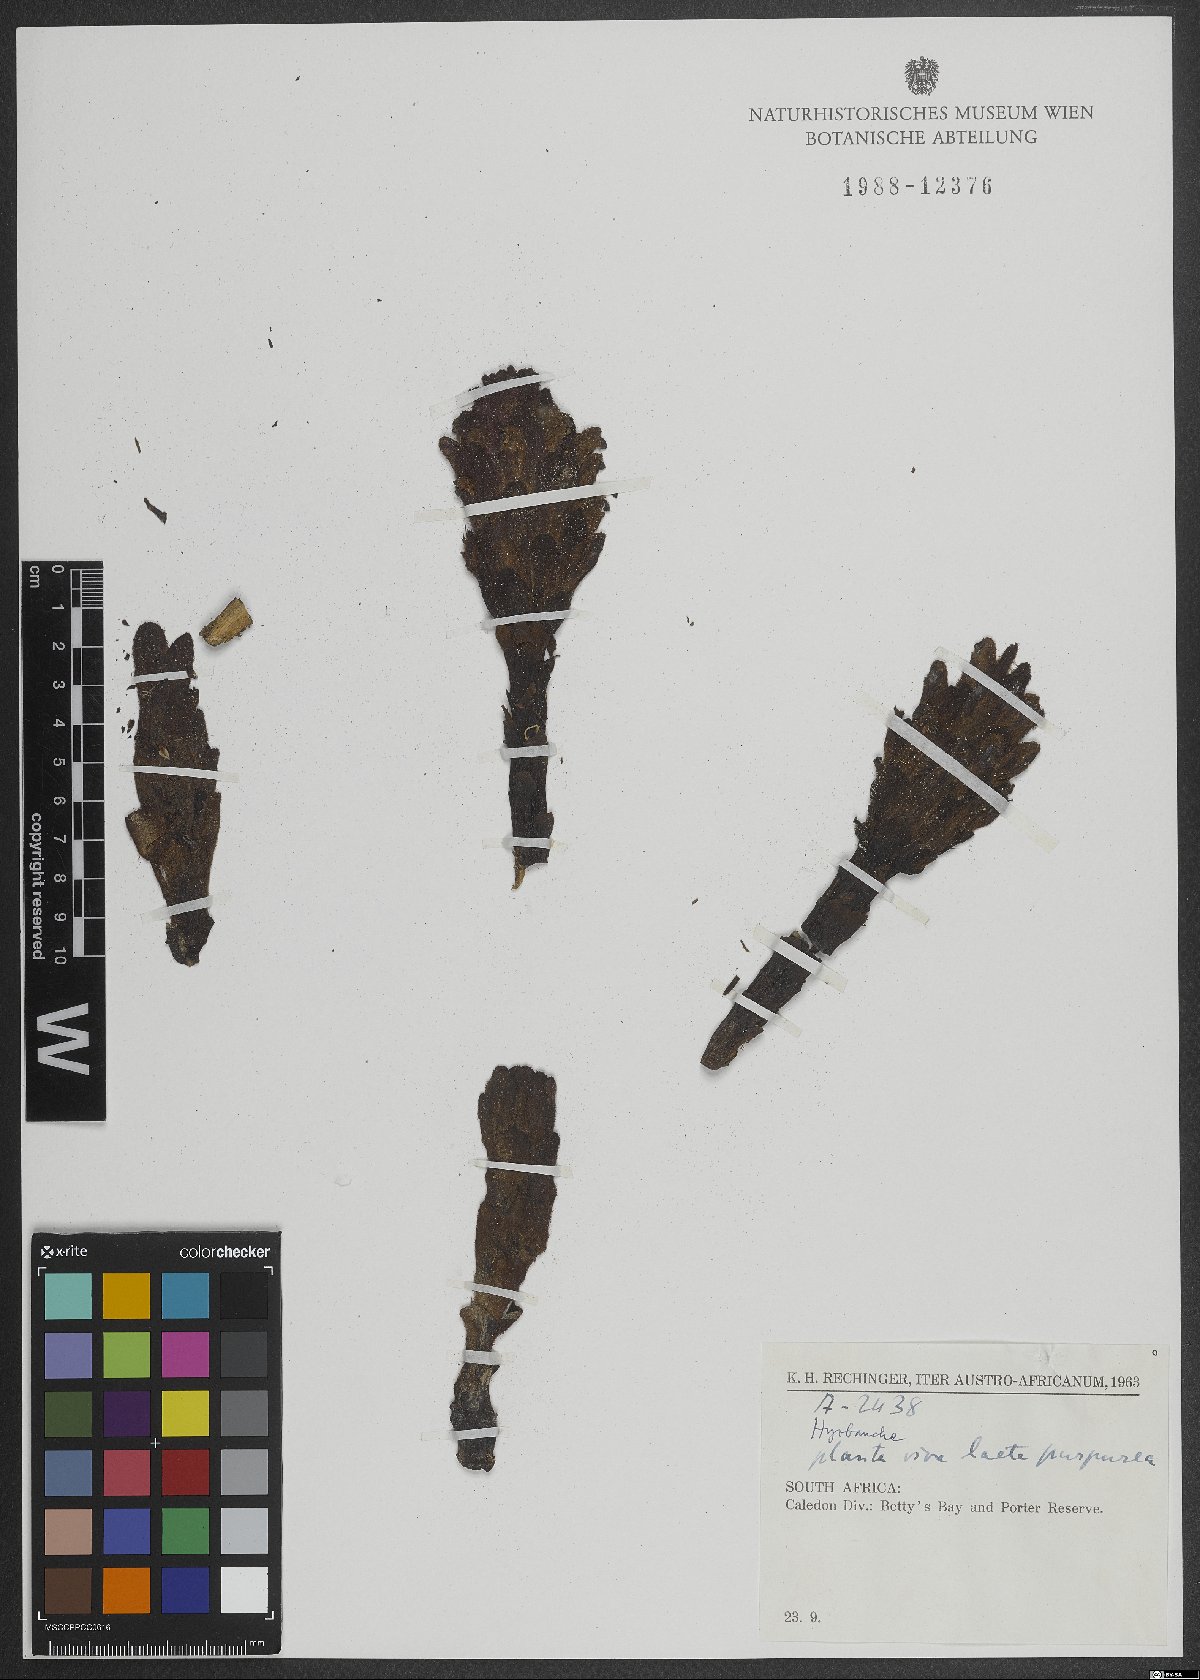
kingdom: Plantae
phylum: Tracheophyta
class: Magnoliopsida
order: Lamiales
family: Orobanchaceae
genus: Hyobanche
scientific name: Hyobanche
